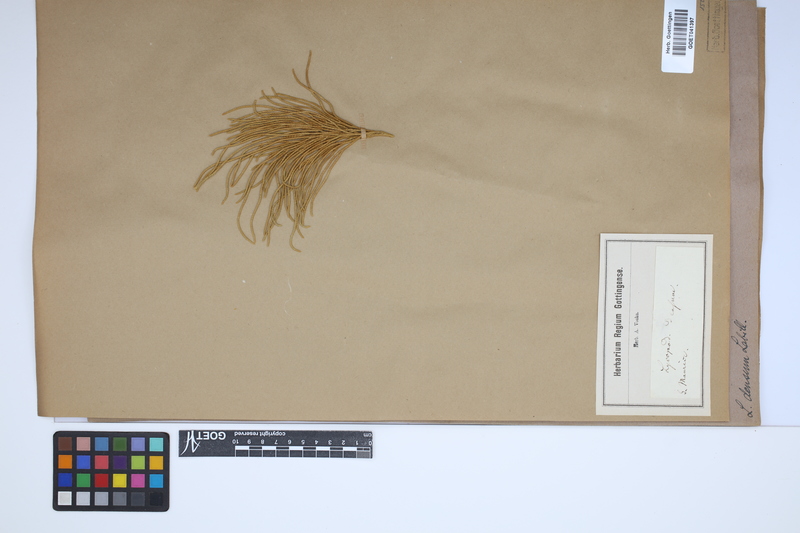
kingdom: Plantae
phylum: Tracheophyta
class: Lycopodiopsida
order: Lycopodiales
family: Lycopodiaceae
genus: Pseudolycopodium
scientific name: Pseudolycopodium densum
